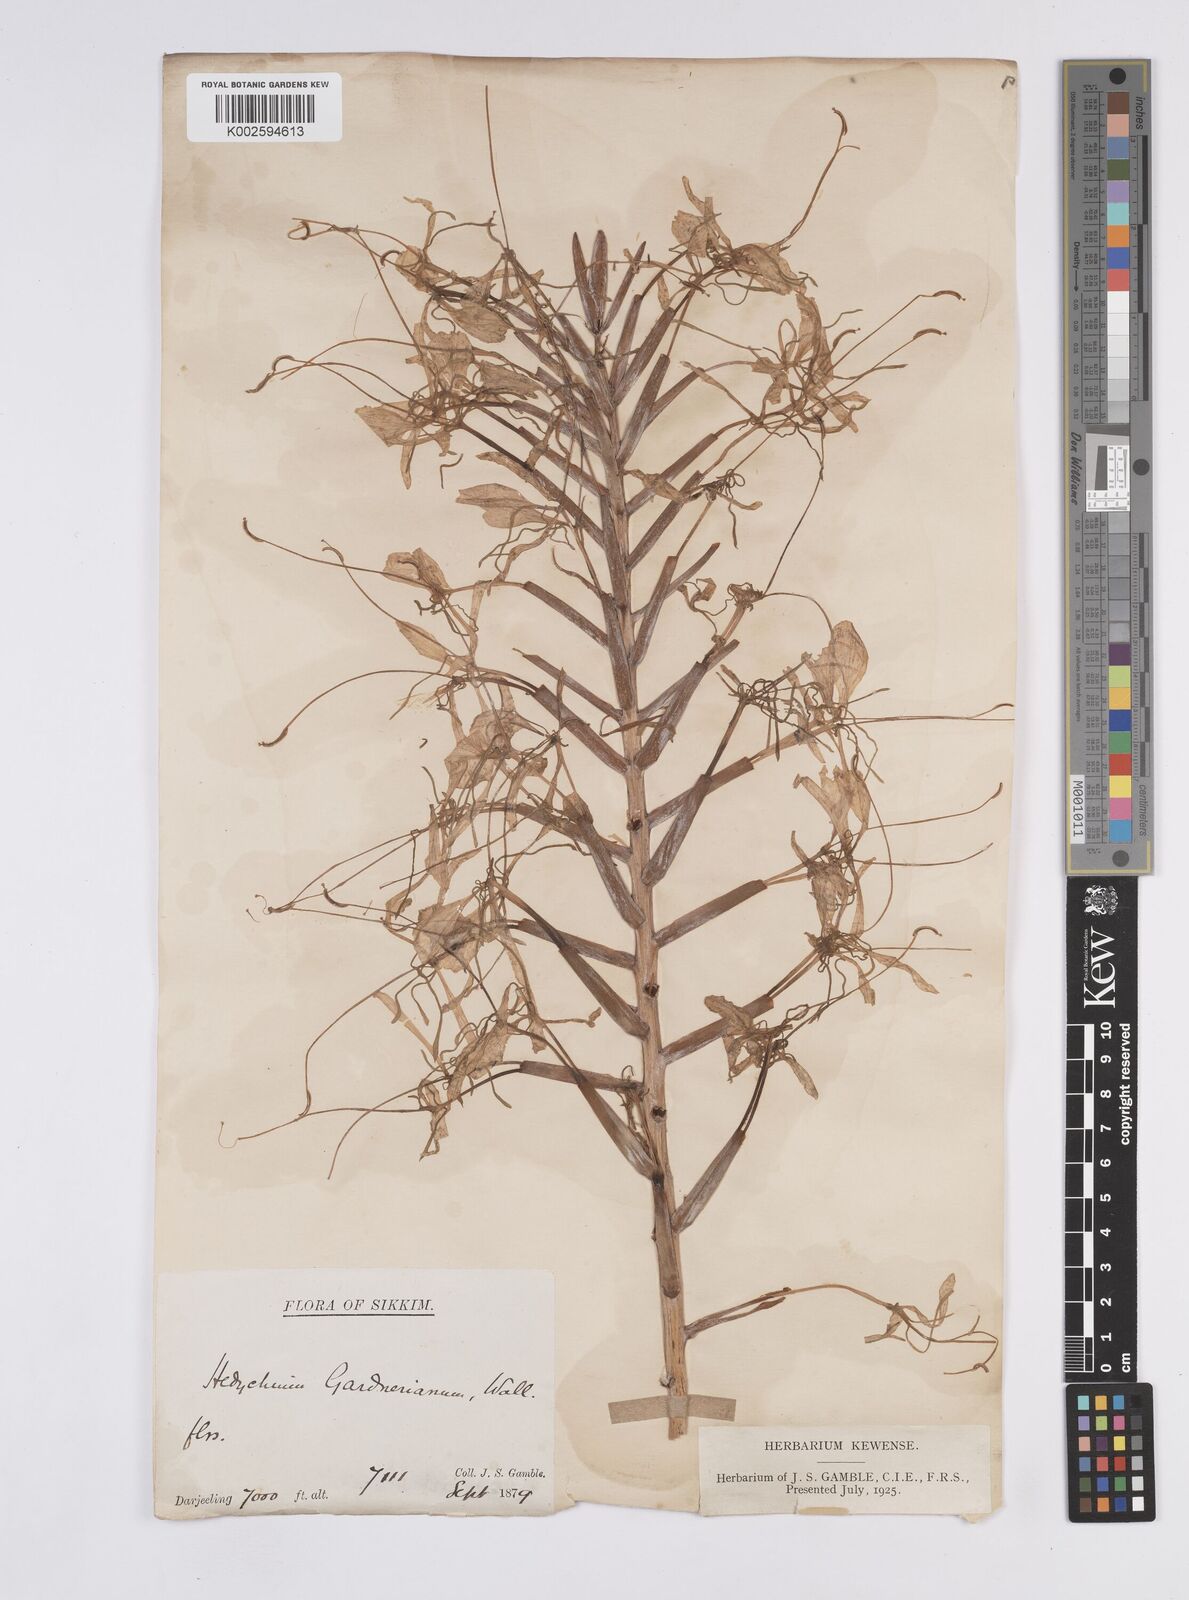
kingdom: Plantae
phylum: Tracheophyta
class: Liliopsida
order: Zingiberales
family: Zingiberaceae
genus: Hedychium
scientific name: Hedychium gardnerianum
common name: Himalayan ginger
